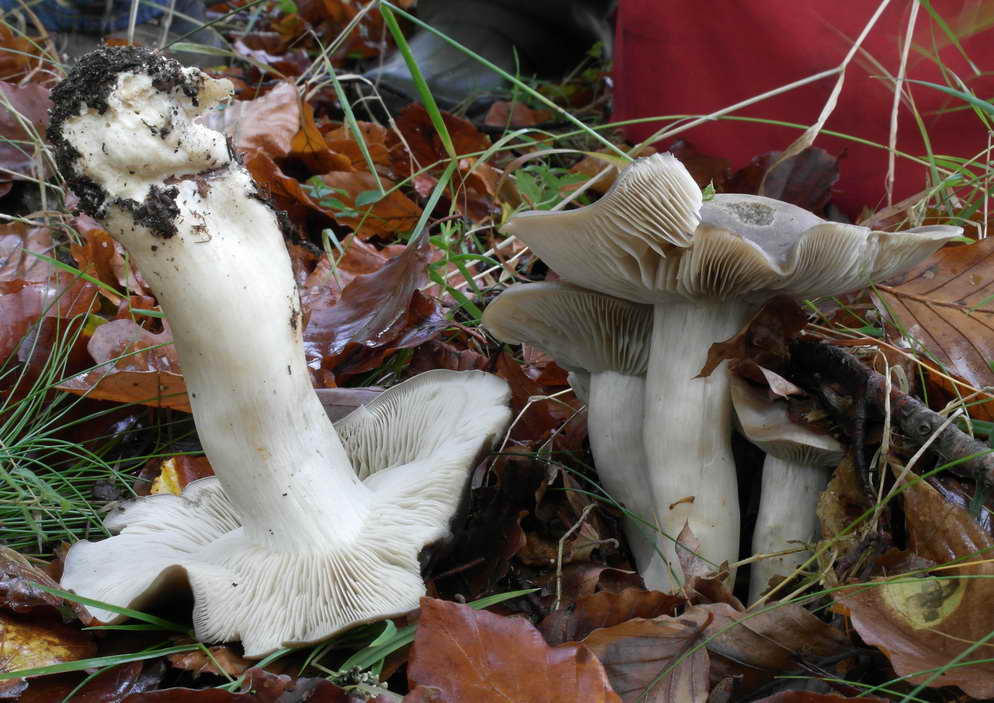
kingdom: Fungi
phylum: Basidiomycota
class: Agaricomycetes
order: Agaricales
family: Lyophyllaceae
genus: Lyophyllum
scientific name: Lyophyllum decastes
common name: røggrå gråblad
